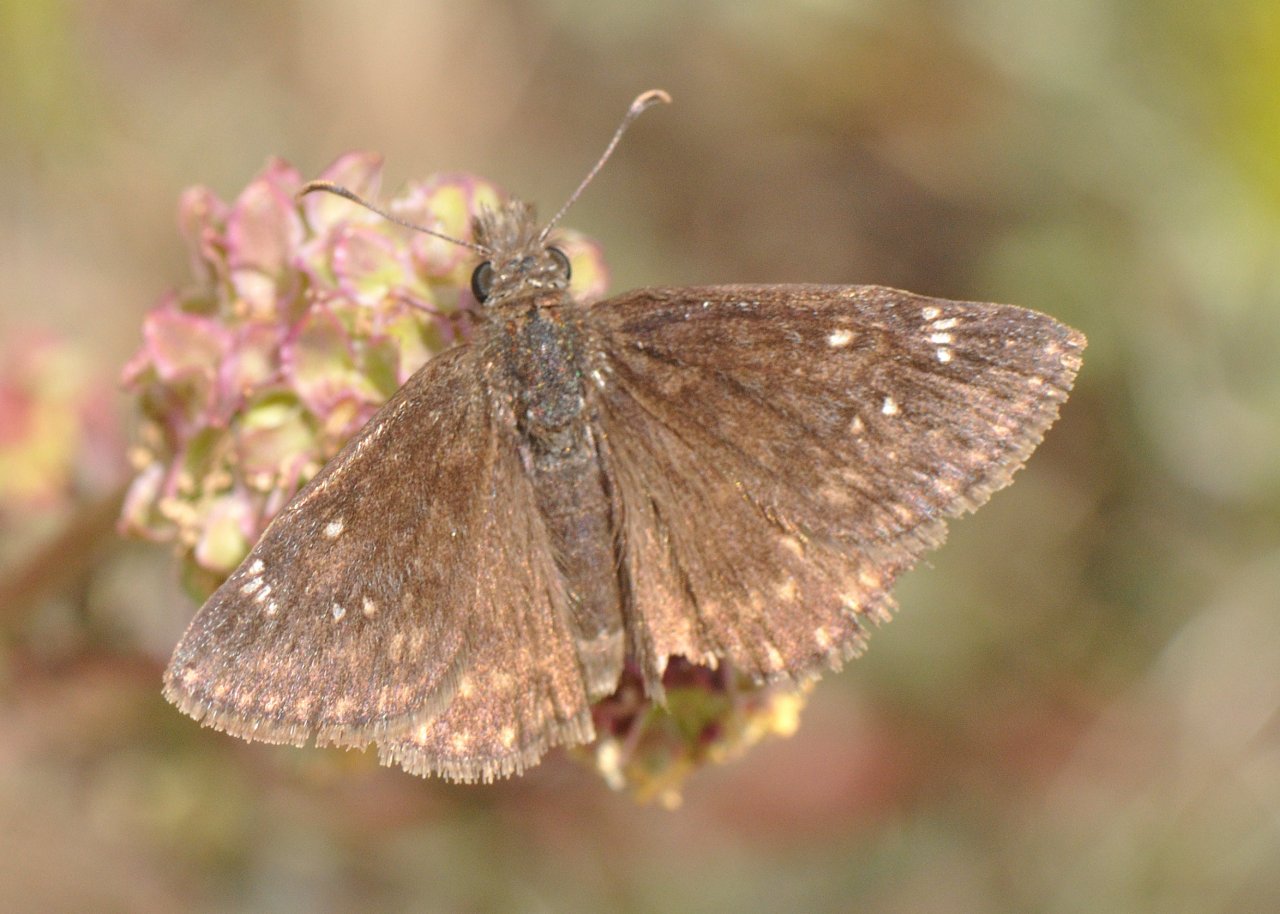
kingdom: Animalia
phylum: Arthropoda
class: Insecta
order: Lepidoptera
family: Hesperiidae
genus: Gesta
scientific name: Gesta
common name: Persius Duskywing
